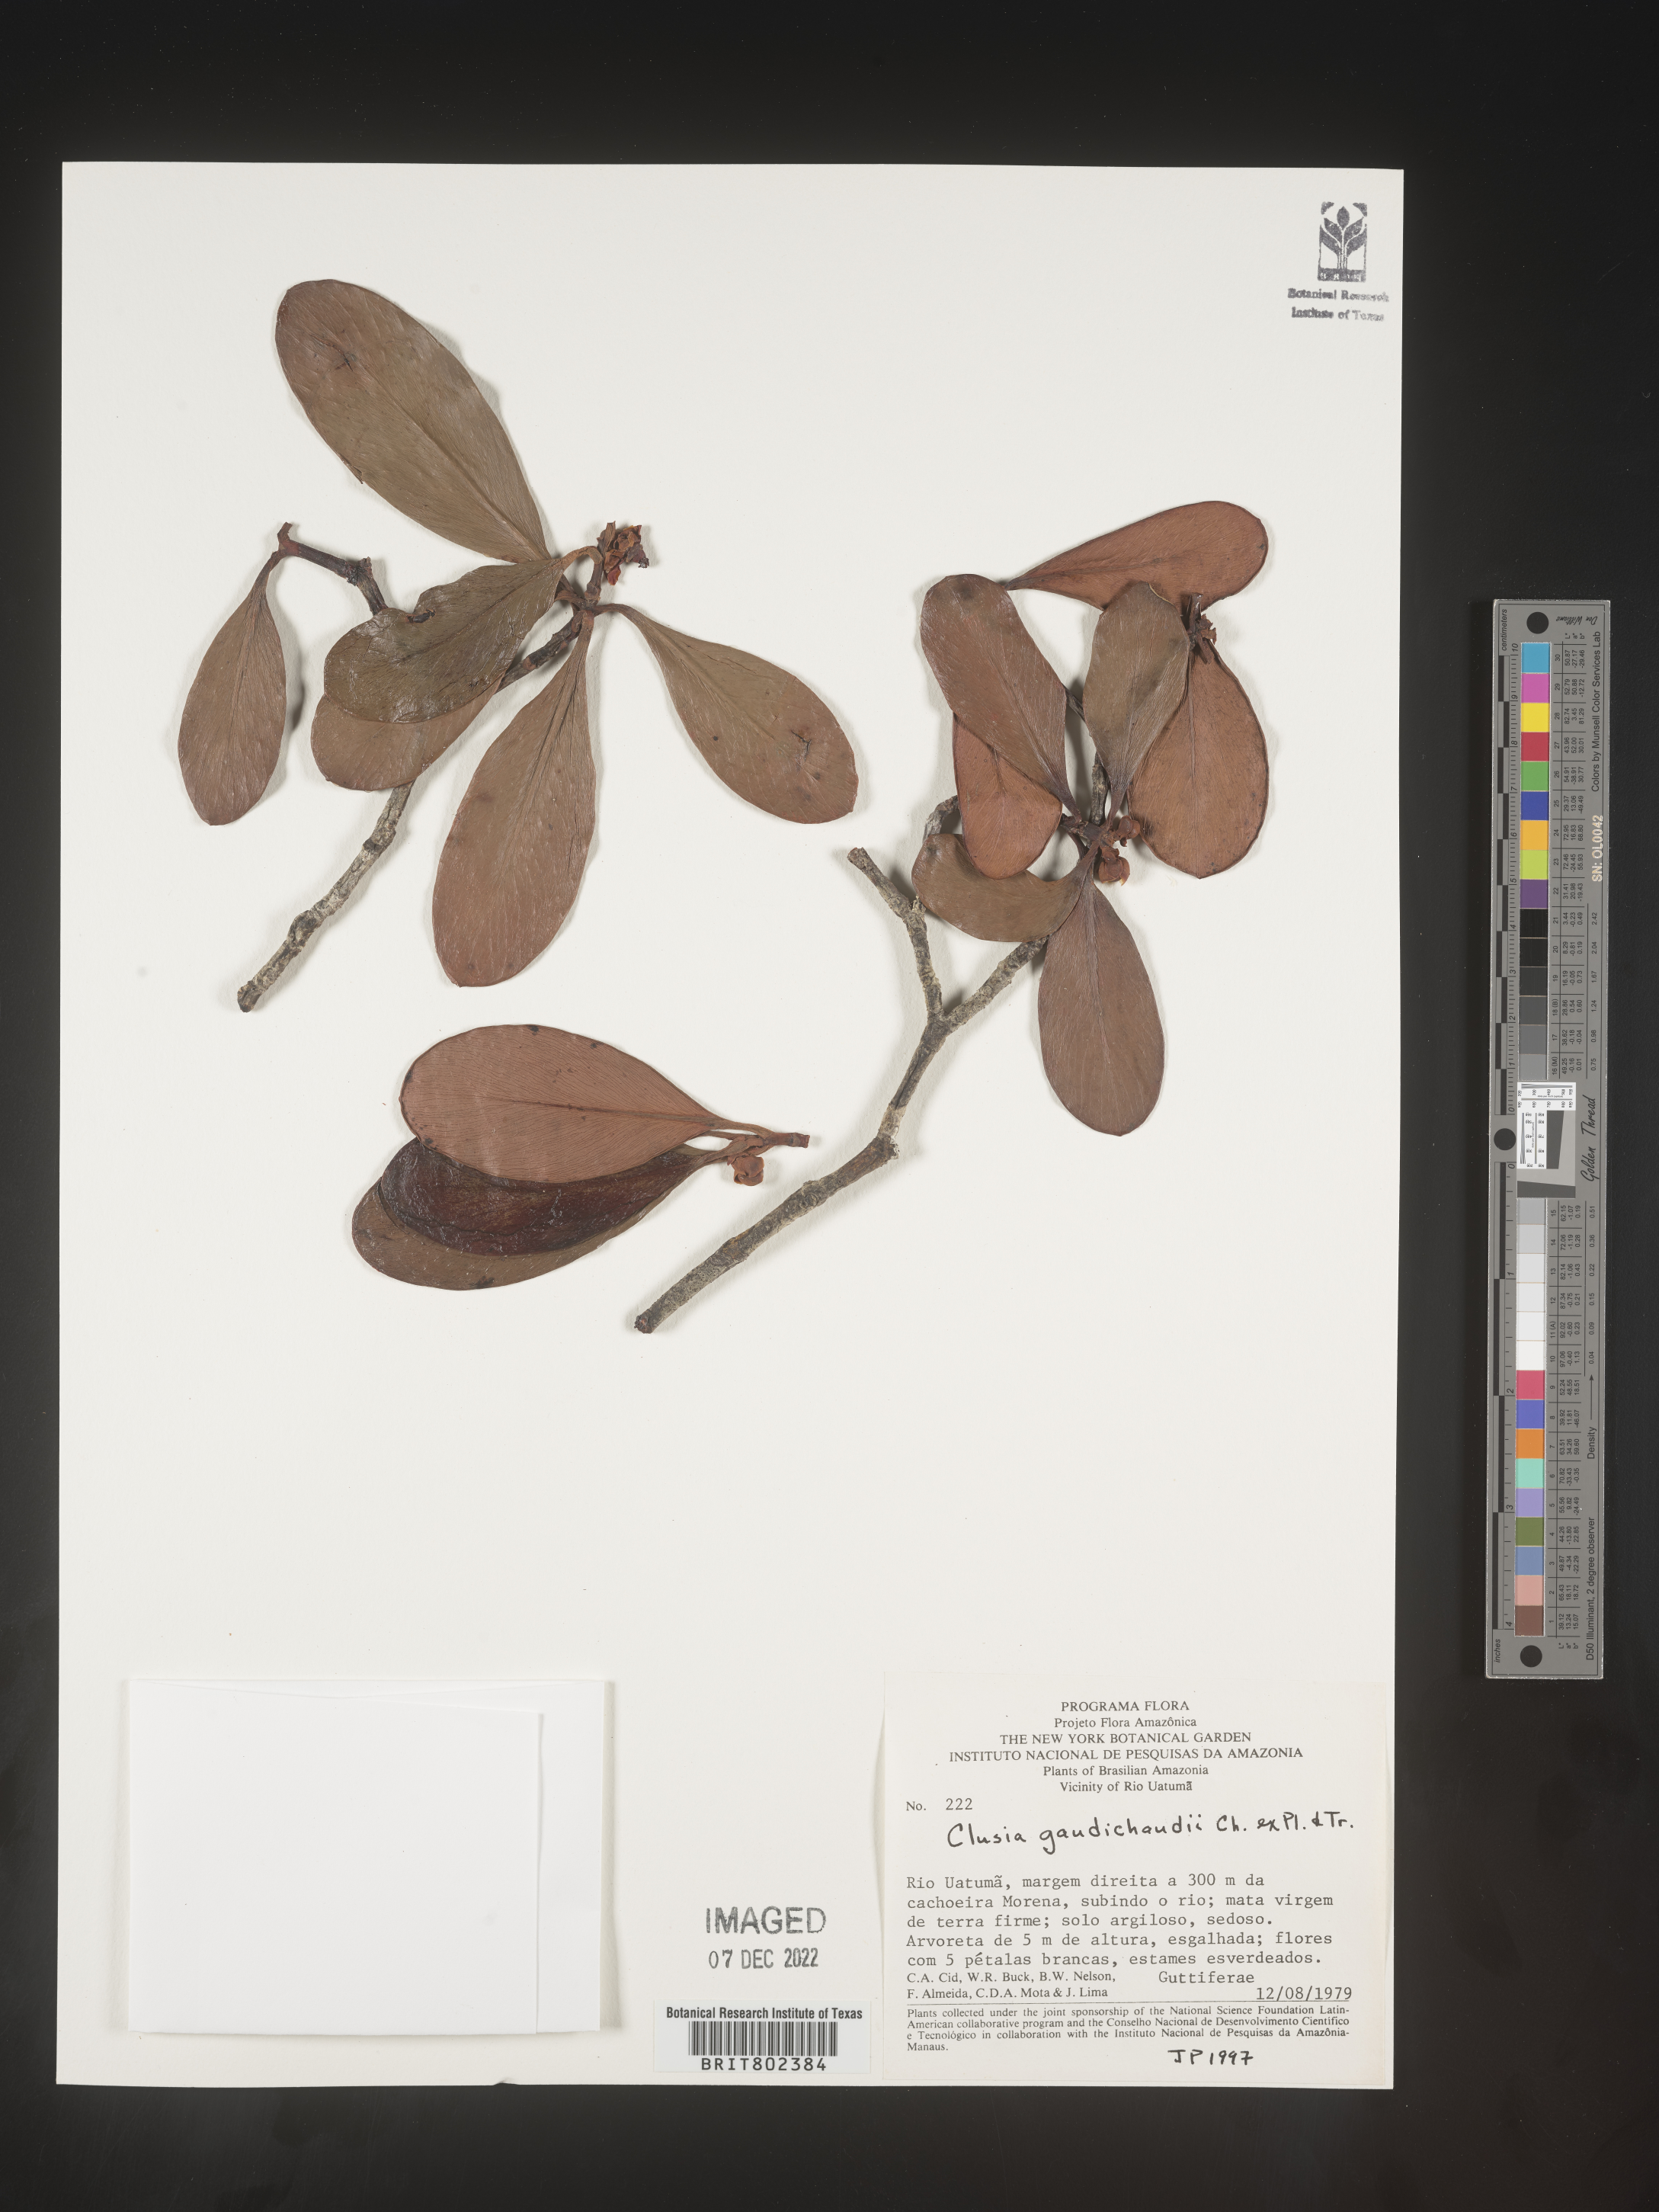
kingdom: Plantae
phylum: Tracheophyta
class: Magnoliopsida
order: Malpighiales
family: Clusiaceae
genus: Clusia
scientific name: Clusia
